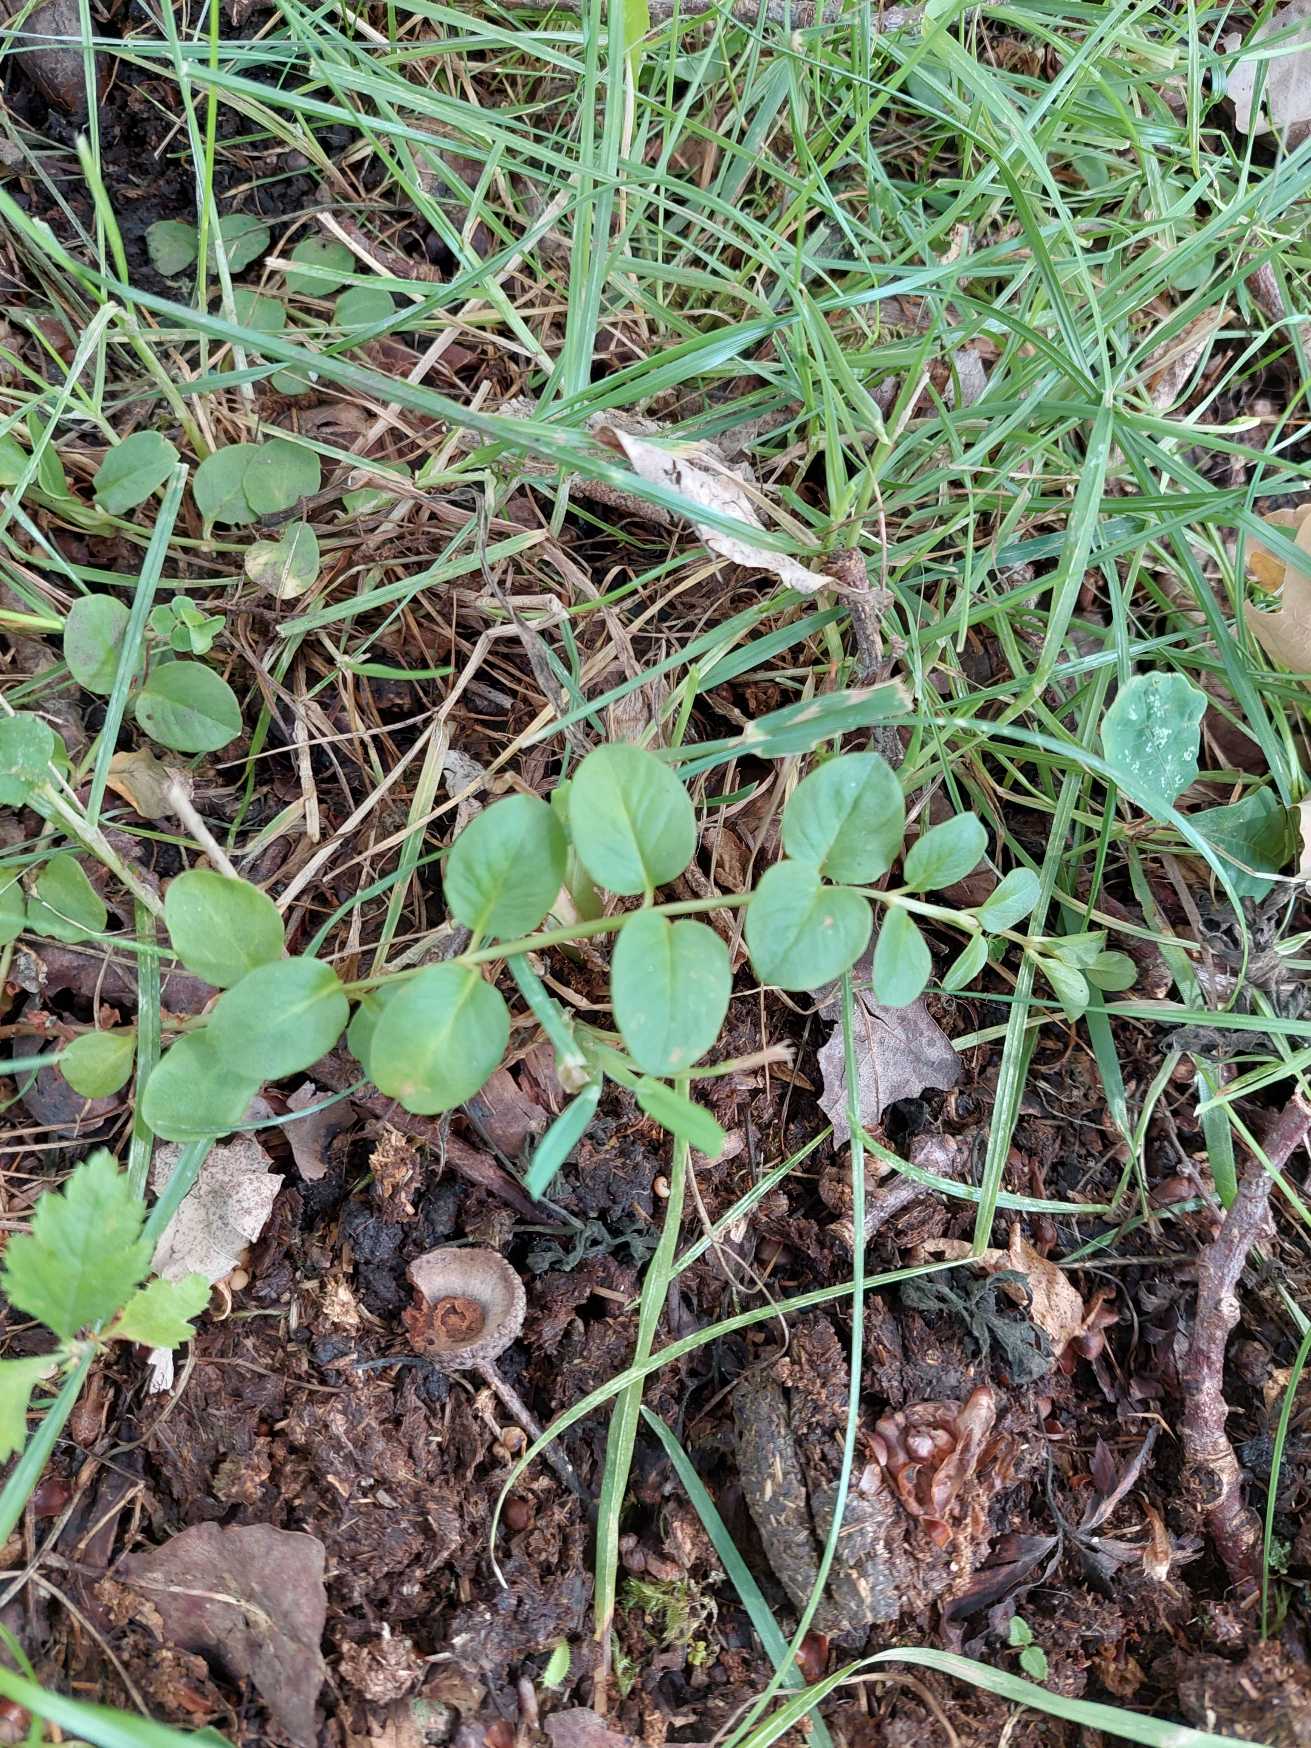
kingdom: Plantae
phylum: Tracheophyta
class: Magnoliopsida
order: Ericales
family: Primulaceae
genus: Lysimachia
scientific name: Lysimachia nummularia
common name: Pengebladet fredløs
